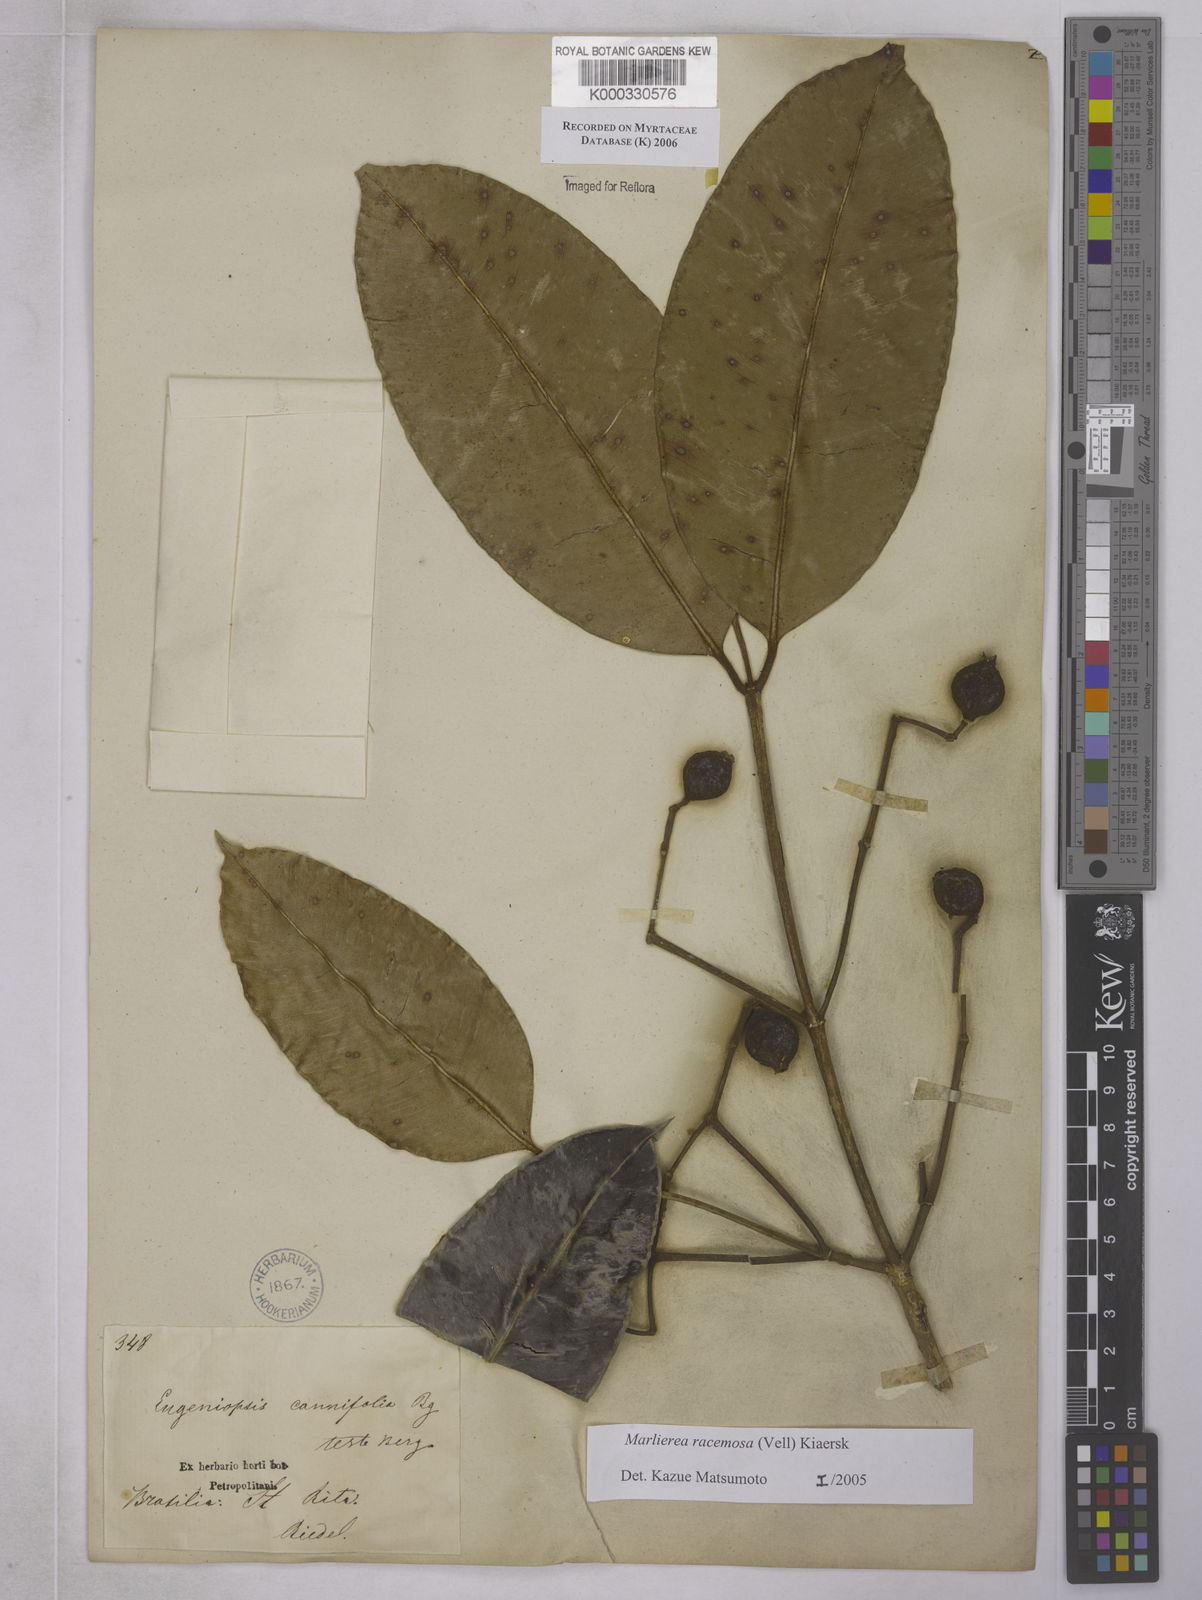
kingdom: Plantae
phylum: Tracheophyta
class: Magnoliopsida
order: Myrtales
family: Myrtaceae
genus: Myrcia
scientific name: Myrcia vellozoi
